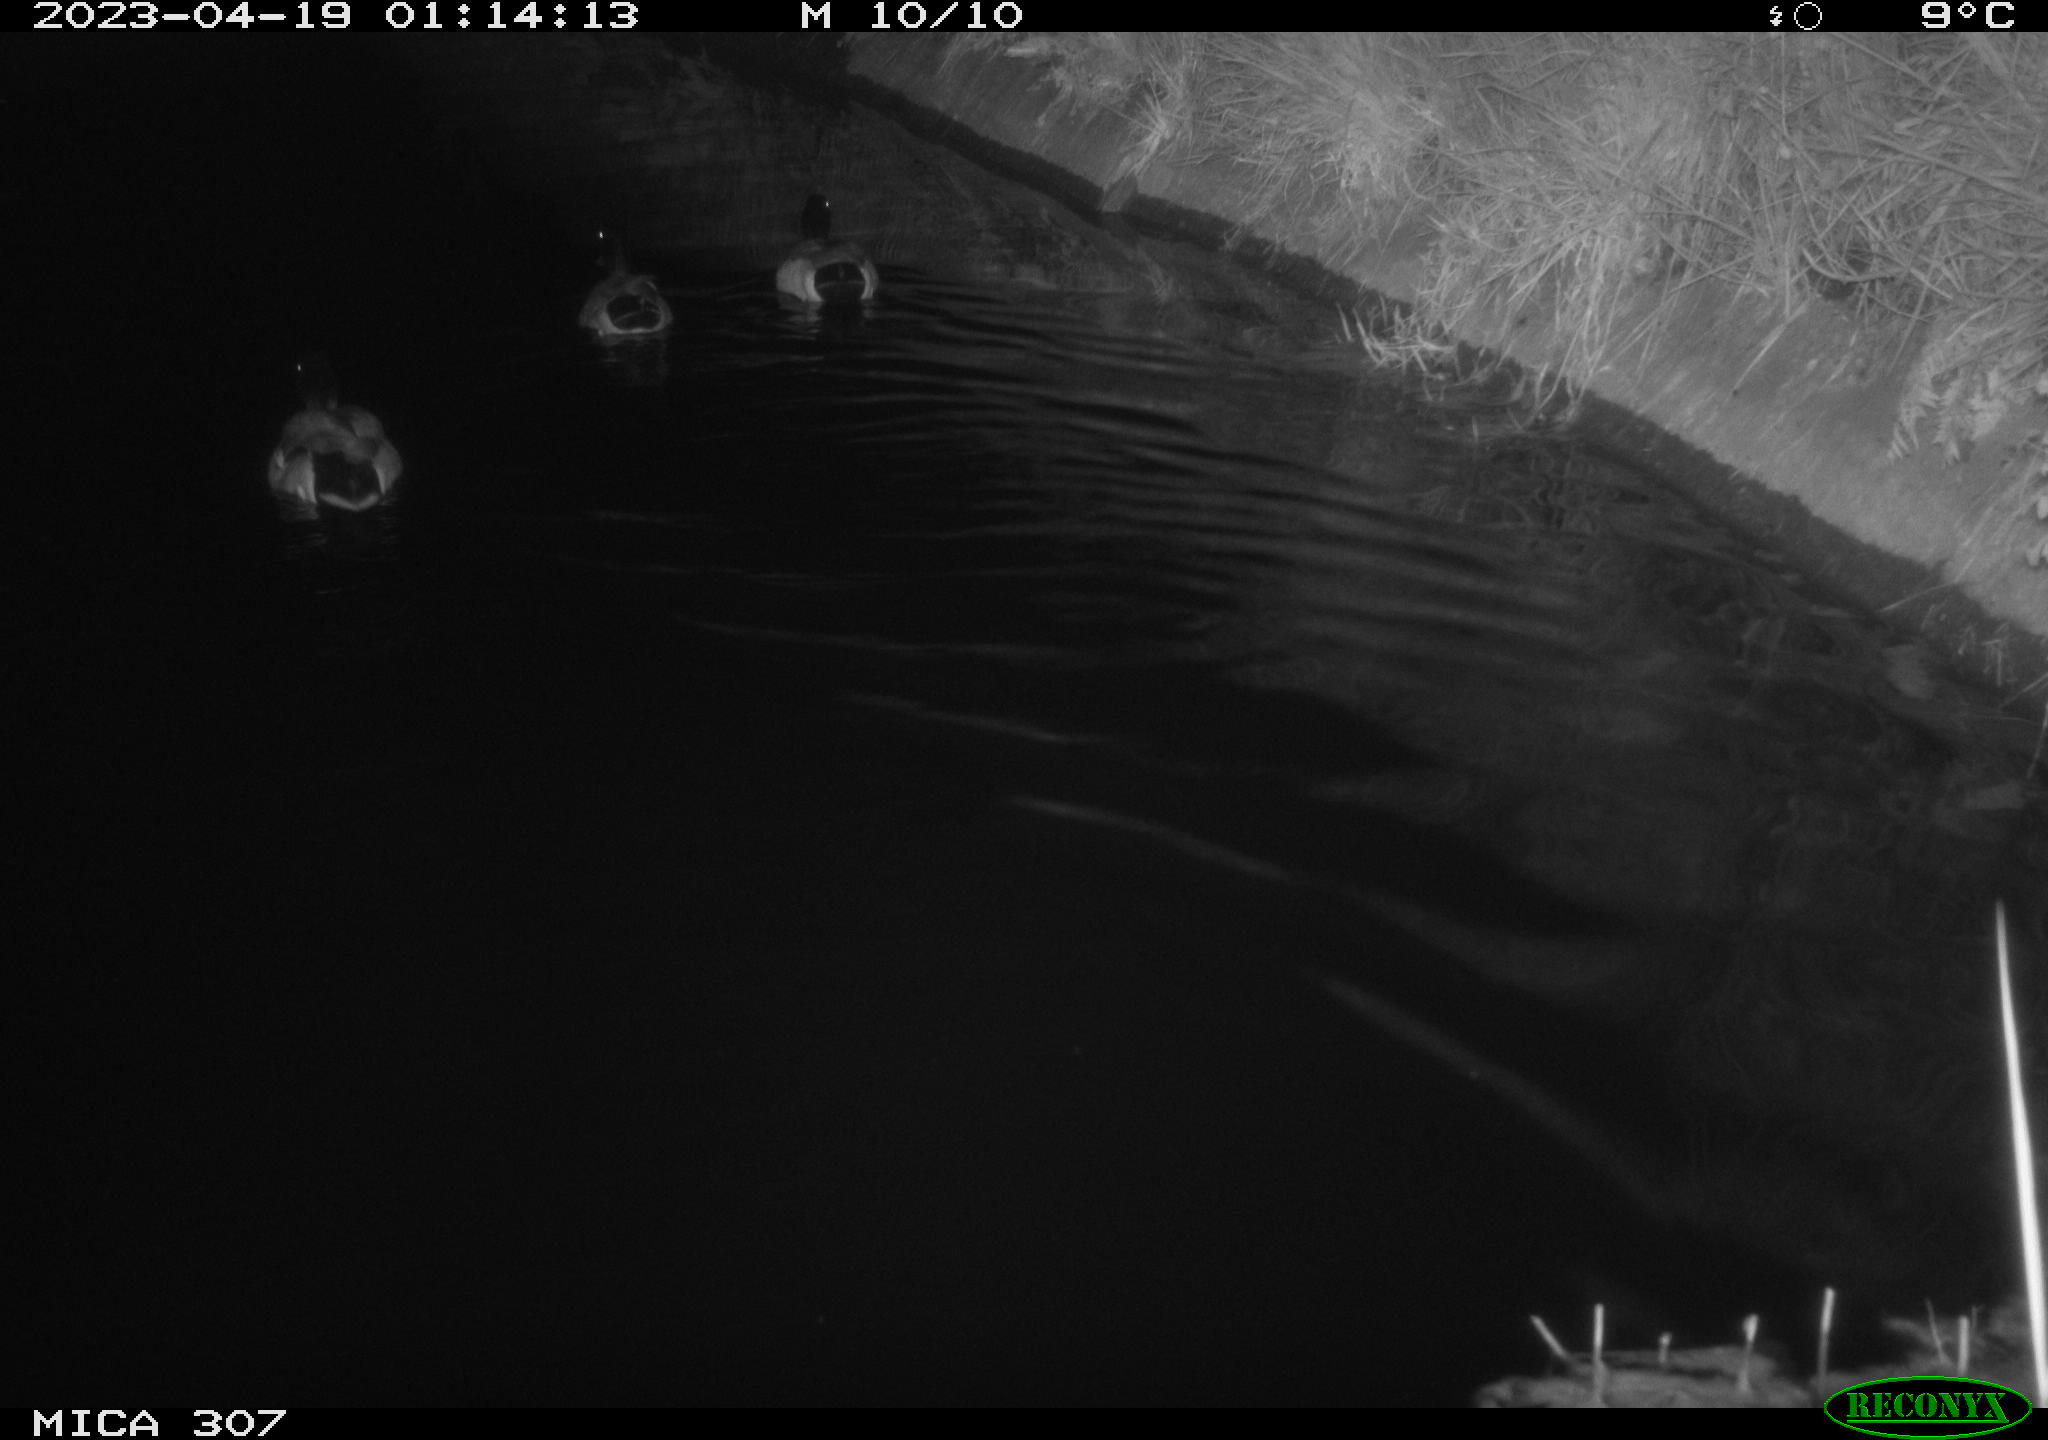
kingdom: Animalia
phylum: Chordata
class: Aves
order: Anseriformes
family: Anatidae
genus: Anas
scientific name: Anas
